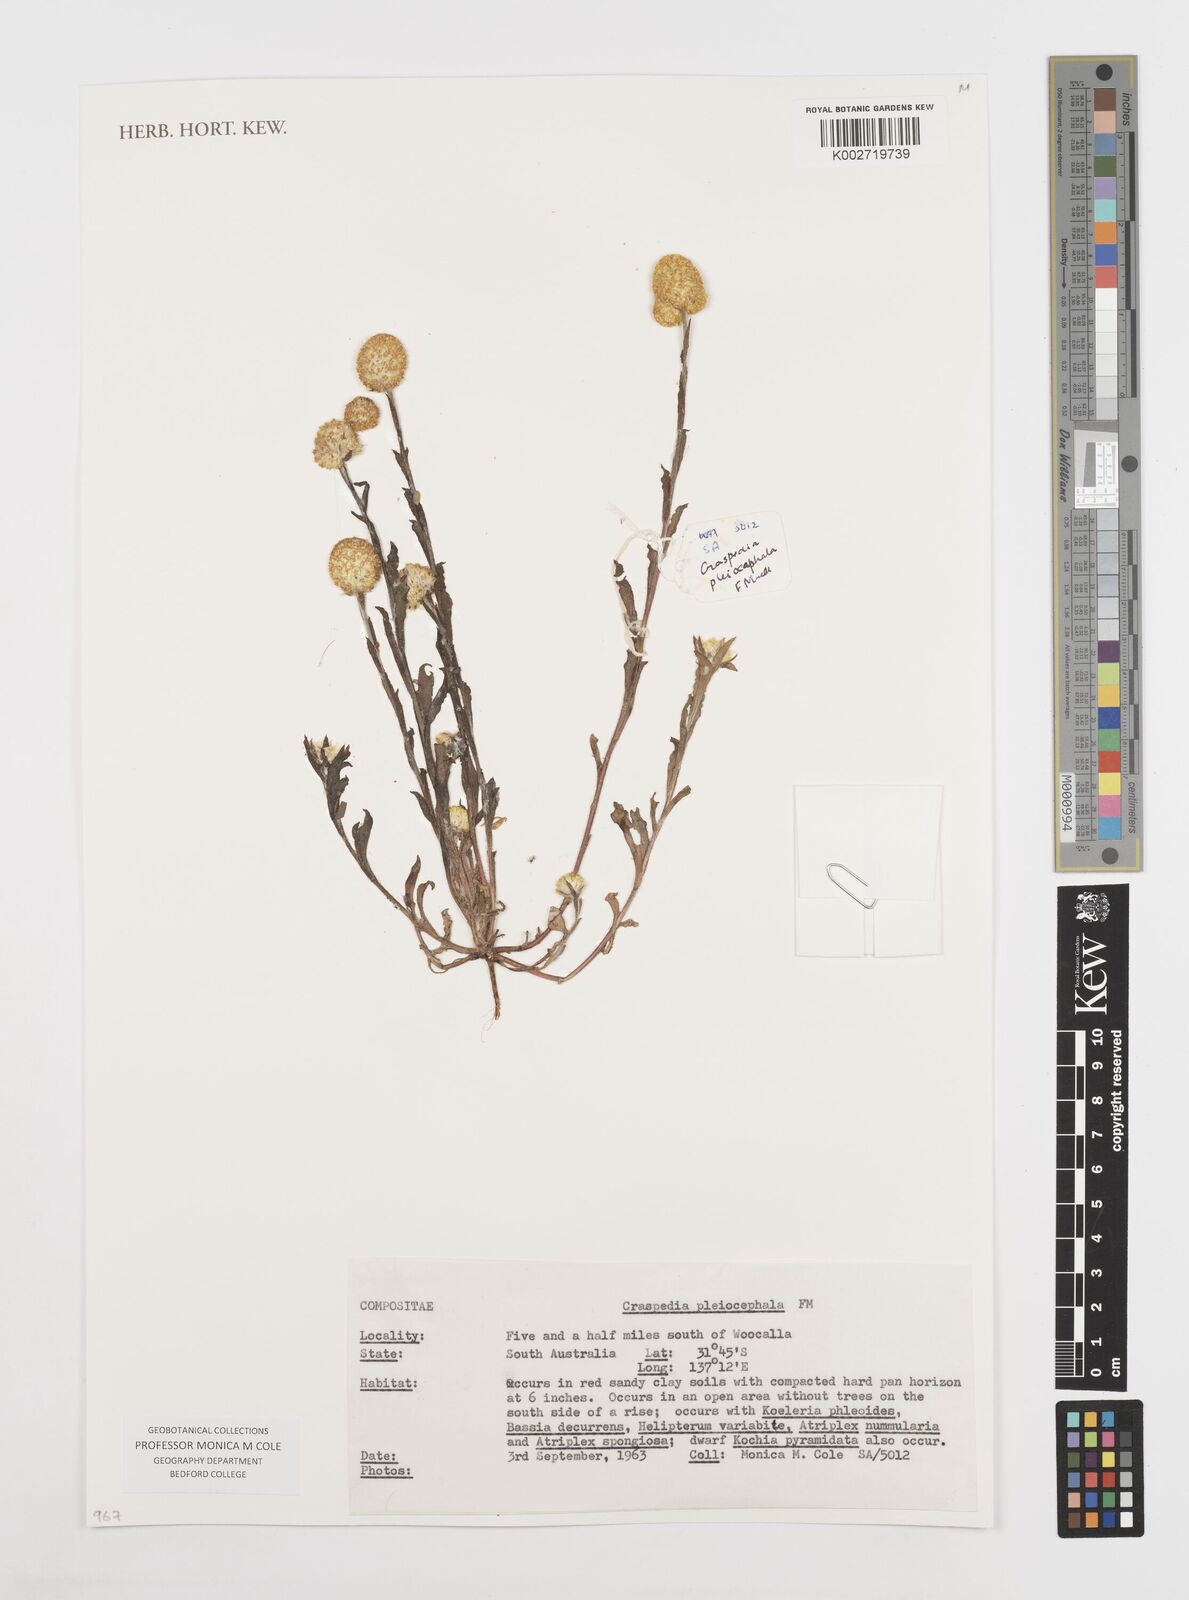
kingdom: Plantae
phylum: Tracheophyta
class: Magnoliopsida
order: Asterales
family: Asteraceae
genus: Pycnosorus
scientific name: Pycnosorus pleiocephalus
